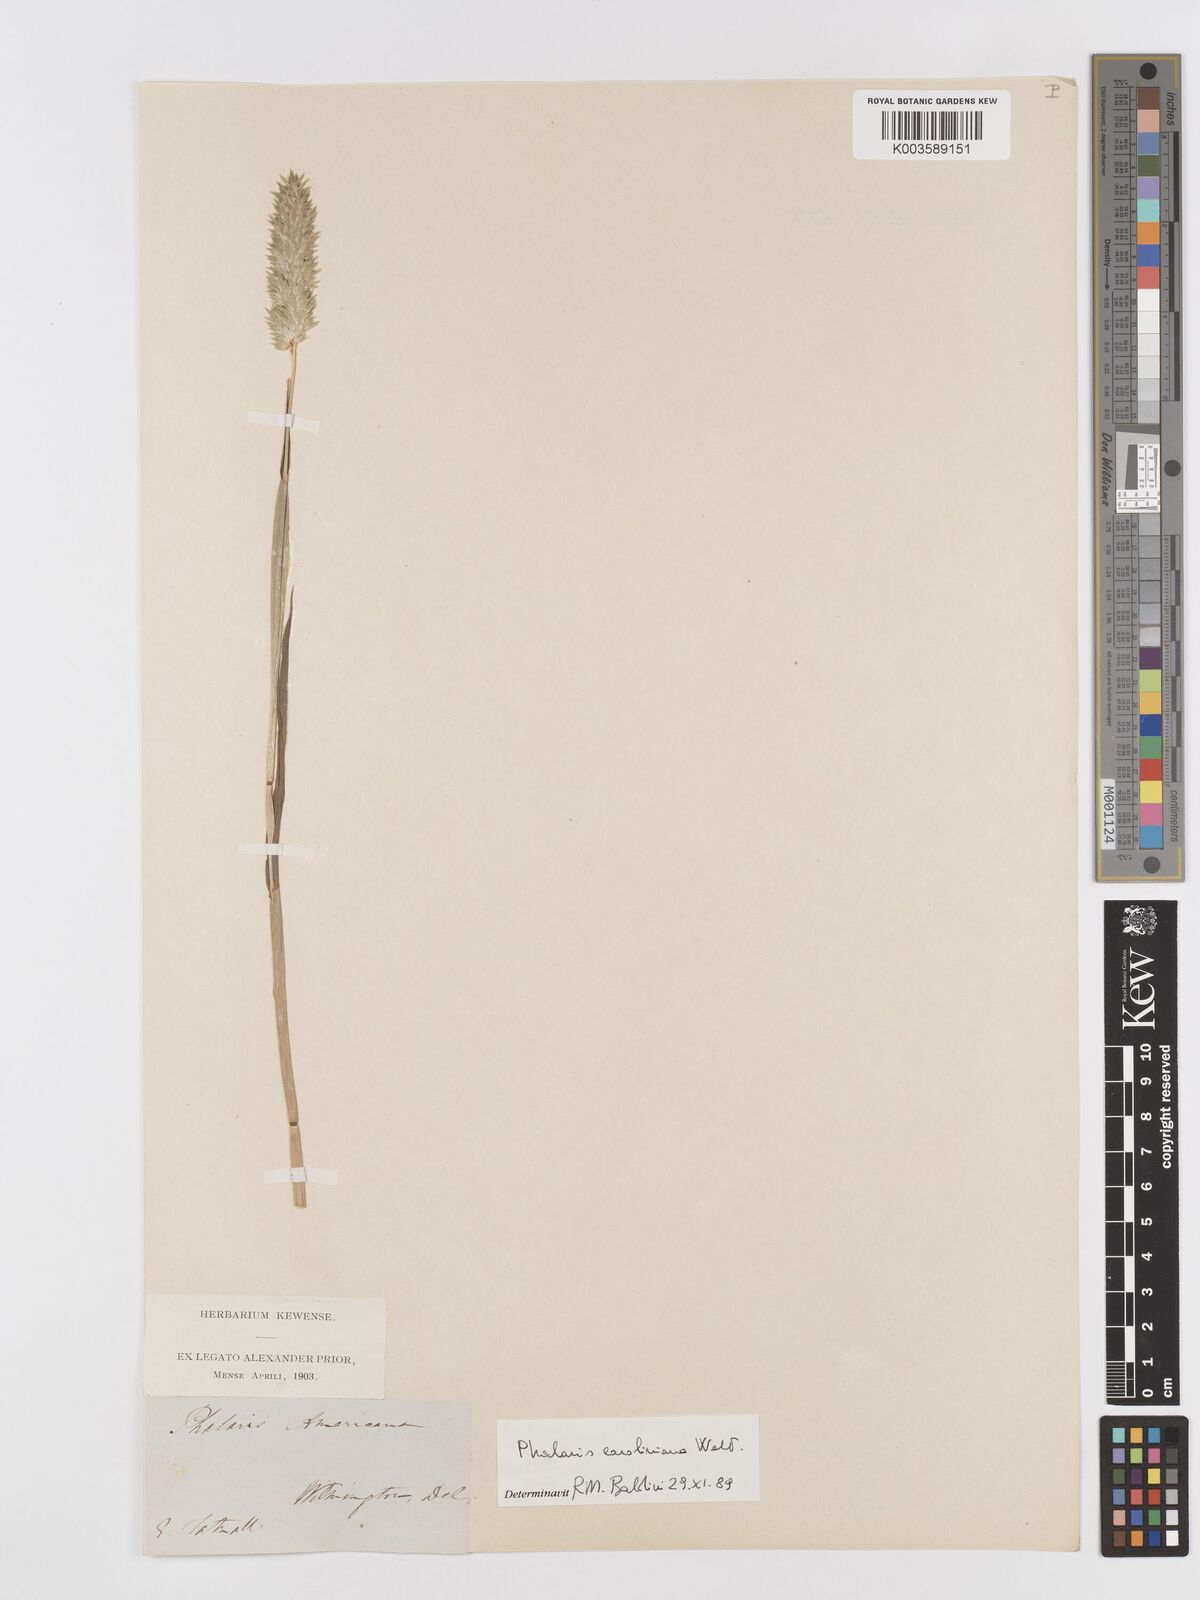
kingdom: Plantae
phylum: Tracheophyta
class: Liliopsida
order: Poales
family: Poaceae
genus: Phalaris
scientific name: Phalaris caroliniana
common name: May grass
